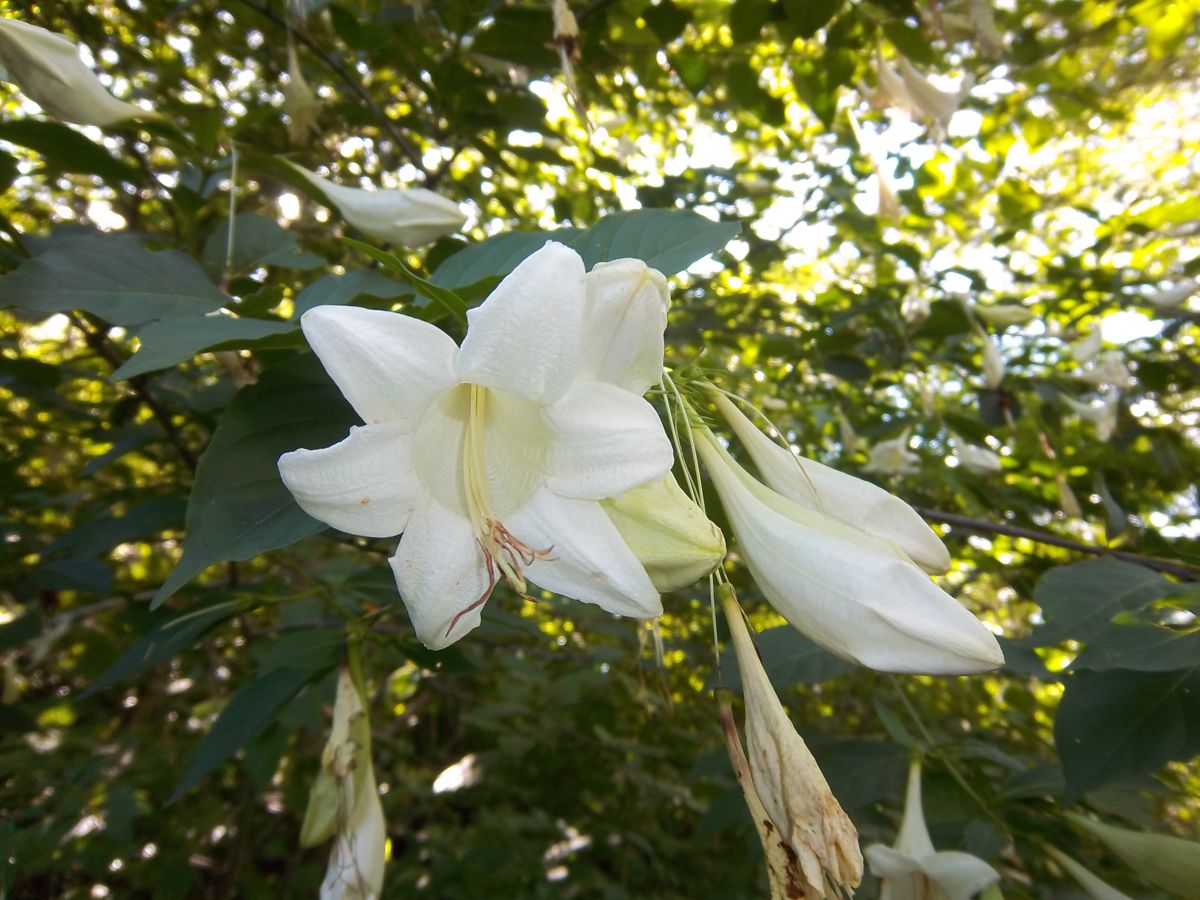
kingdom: Plantae
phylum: Tracheophyta
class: Magnoliopsida
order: Gentianales
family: Rubiaceae
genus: Coutarea
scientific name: Coutarea hexandra
